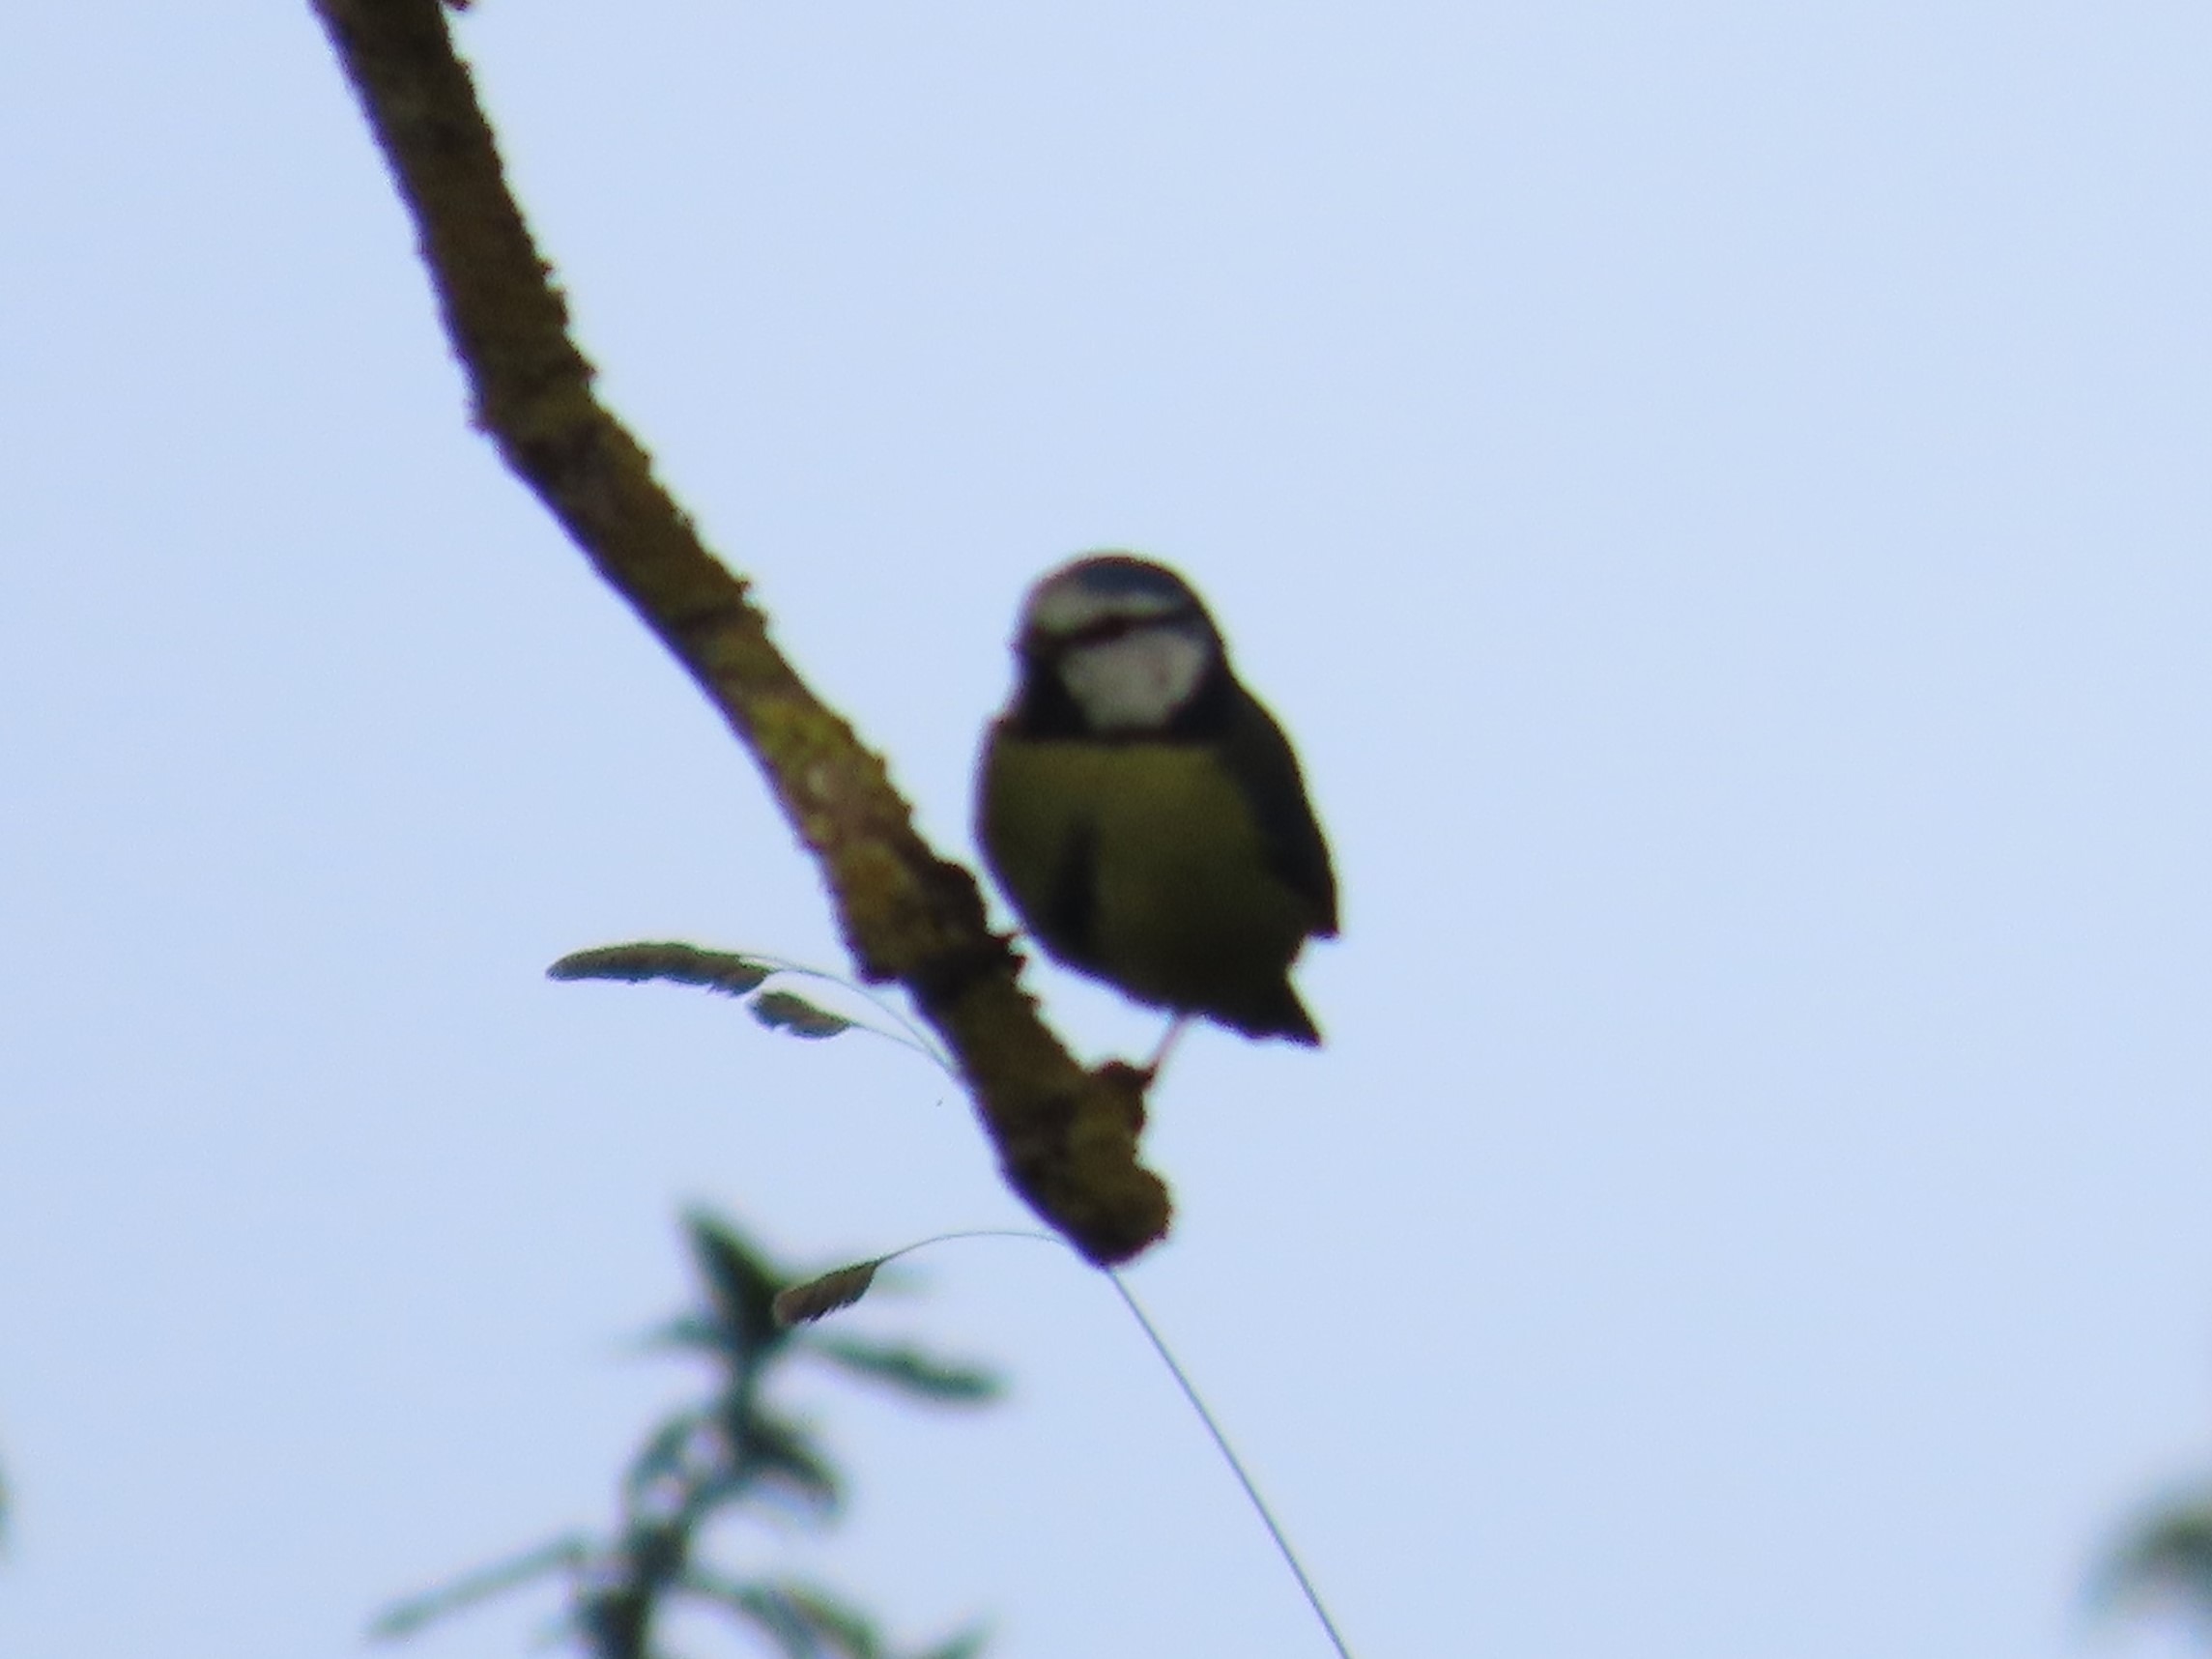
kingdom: Animalia
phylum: Chordata
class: Aves
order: Passeriformes
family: Paridae
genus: Cyanistes
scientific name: Cyanistes caeruleus
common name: Blåmejse
